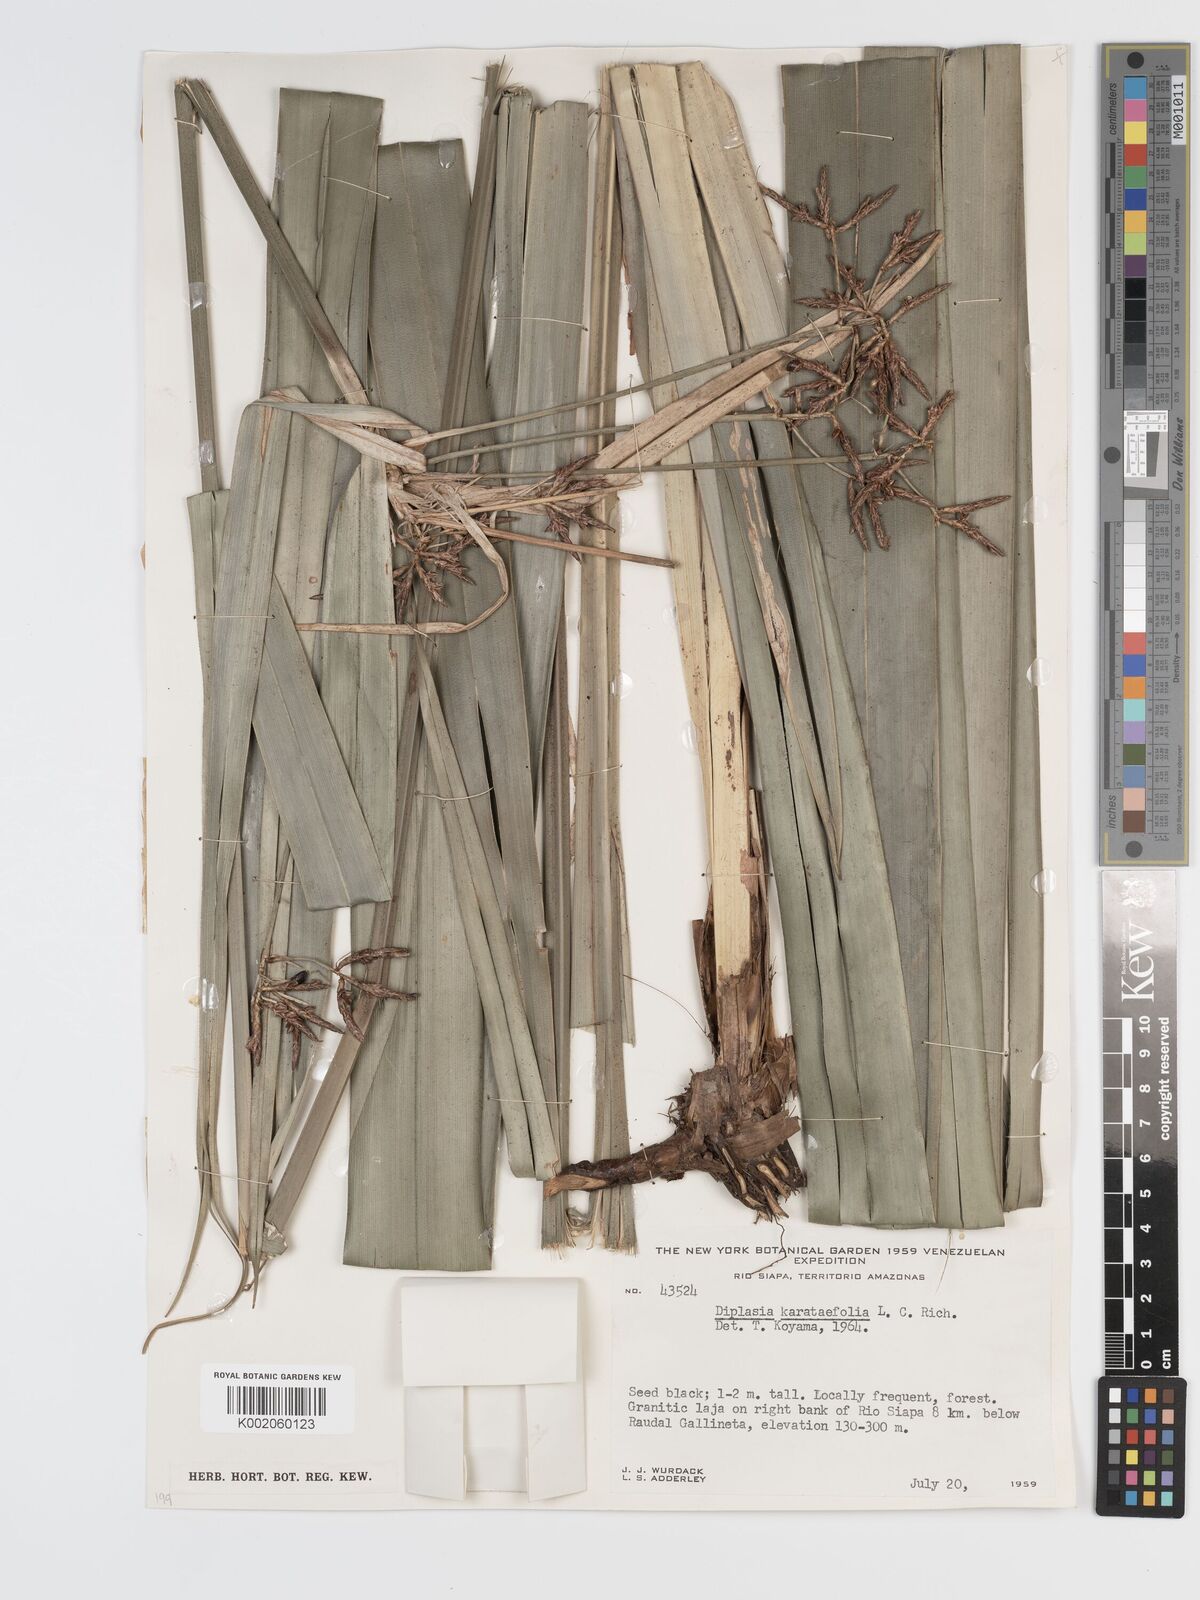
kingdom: Plantae
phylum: Tracheophyta
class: Liliopsida
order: Poales
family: Cyperaceae
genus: Diplasia
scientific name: Diplasia karatifolia
